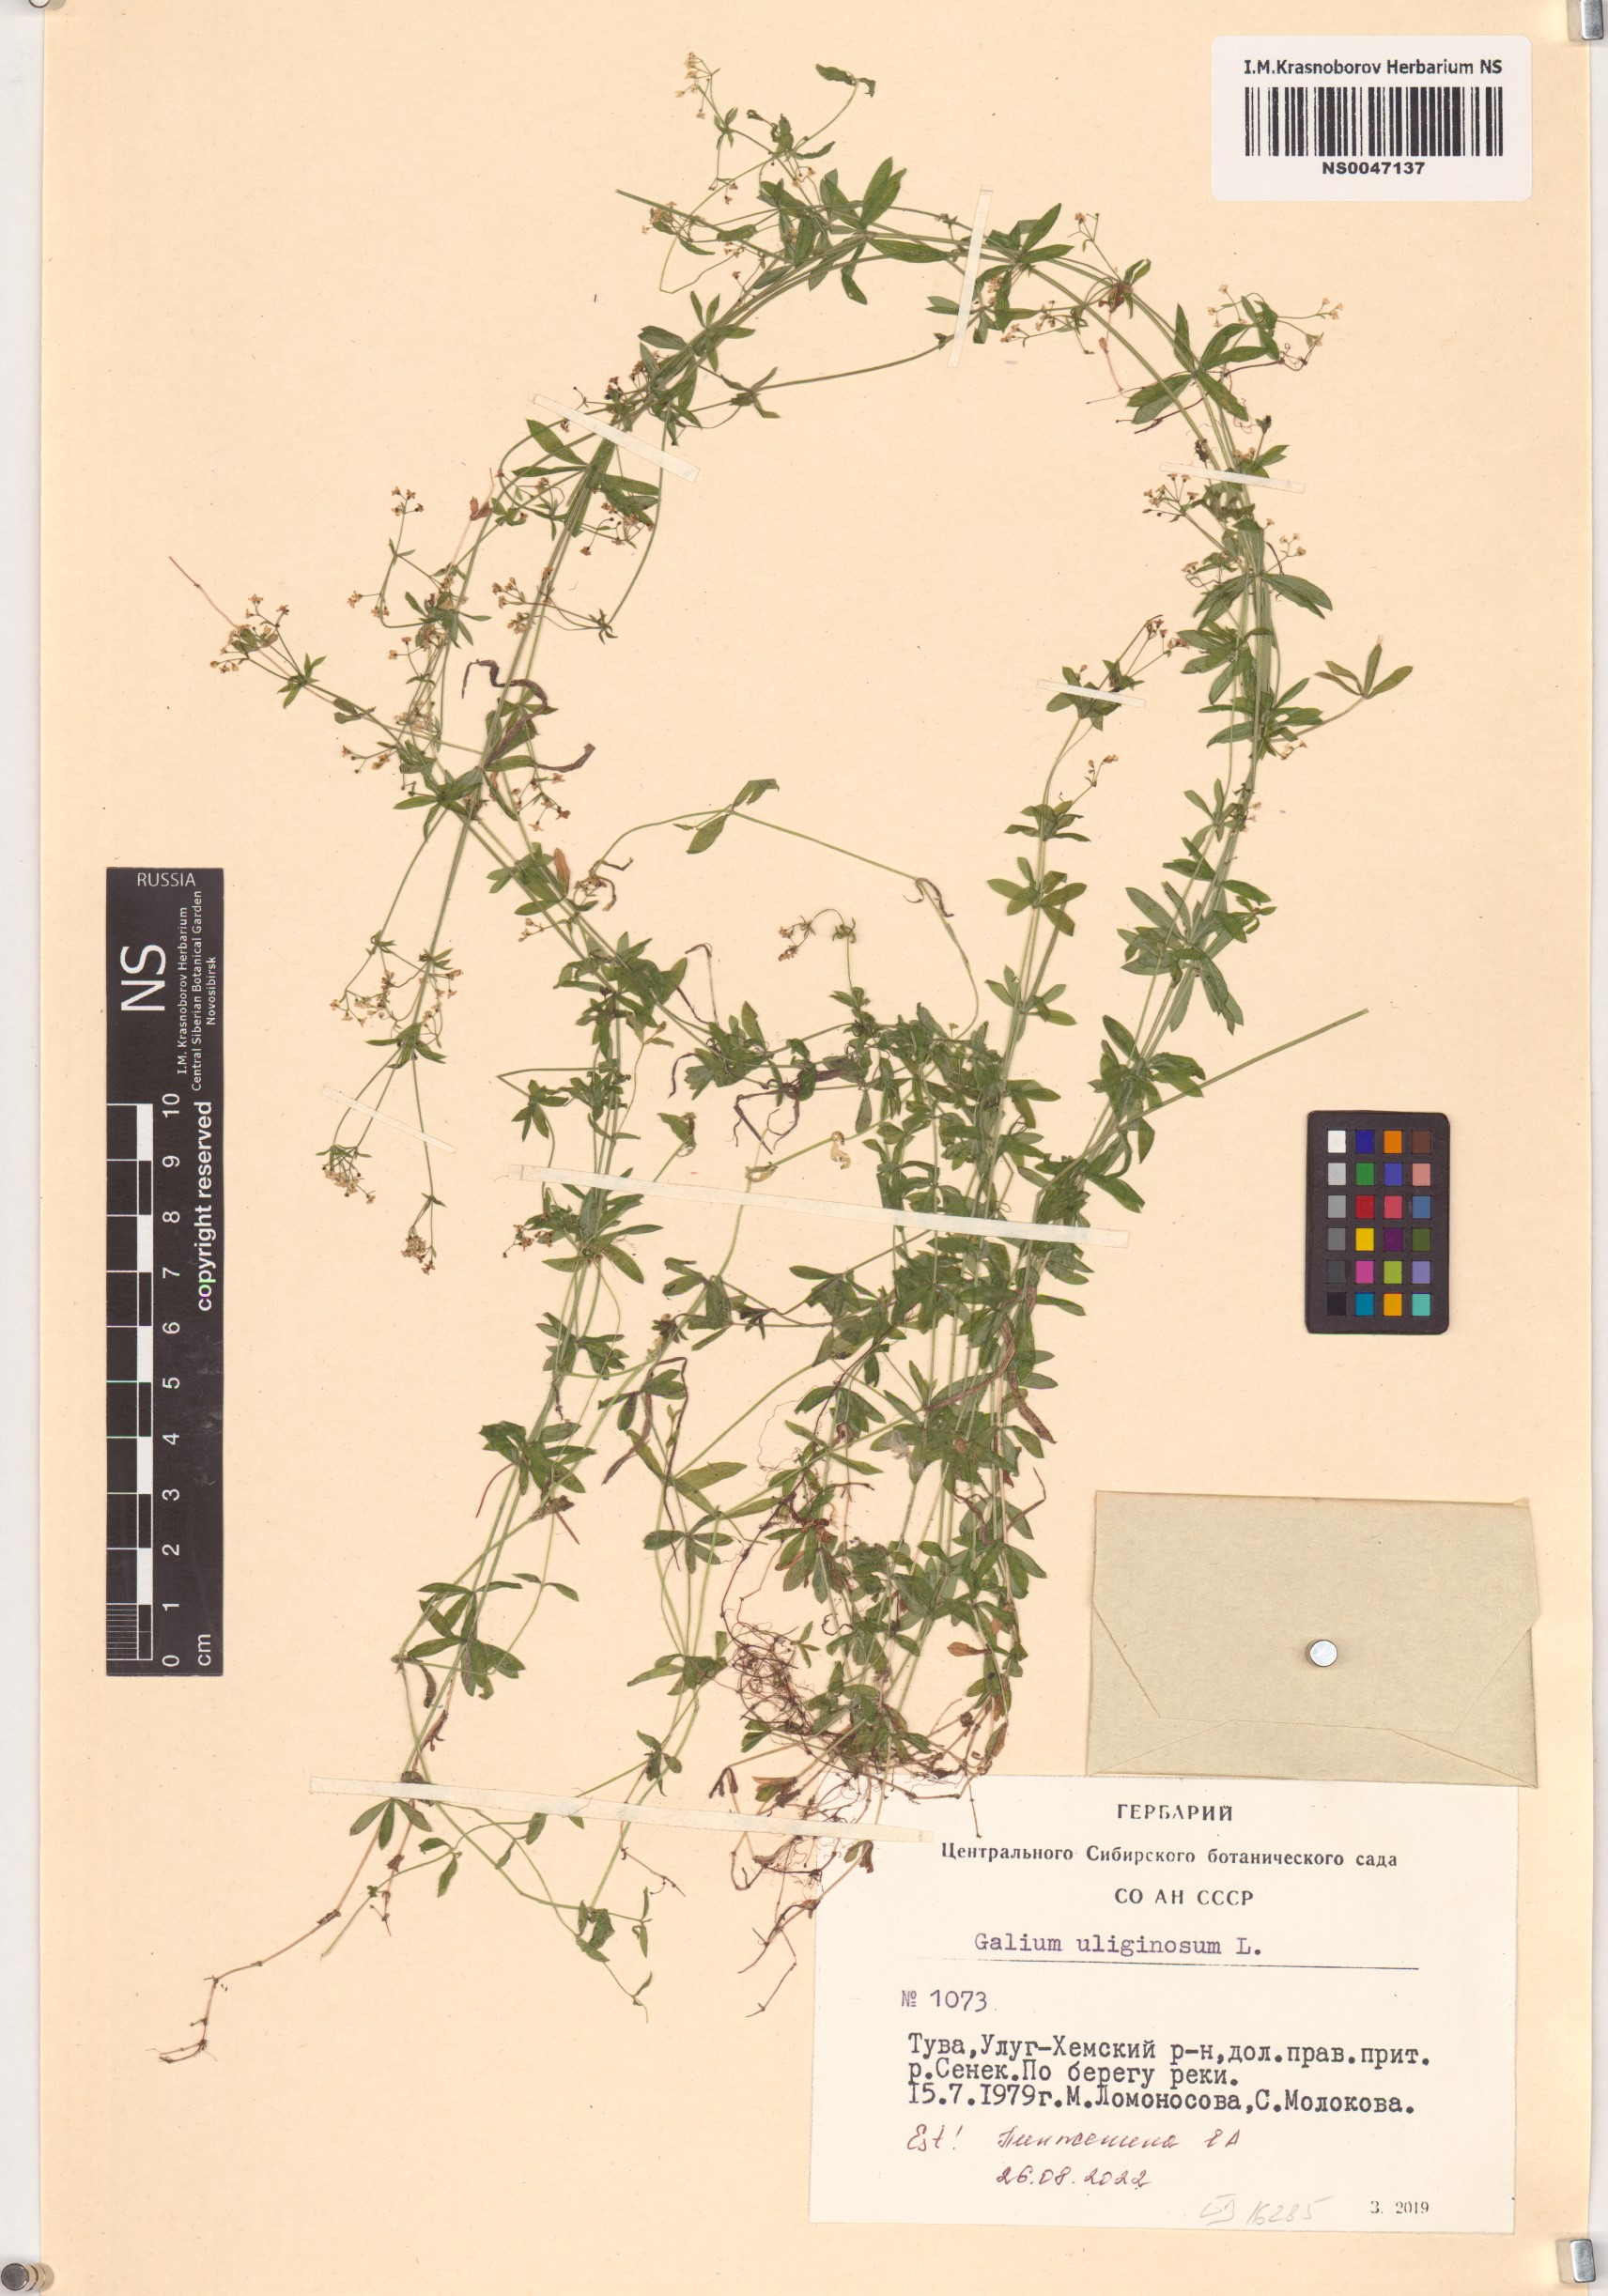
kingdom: Plantae
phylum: Tracheophyta
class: Magnoliopsida
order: Gentianales
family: Rubiaceae
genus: Galium
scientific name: Galium uliginosum
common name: Fen bedstraw
